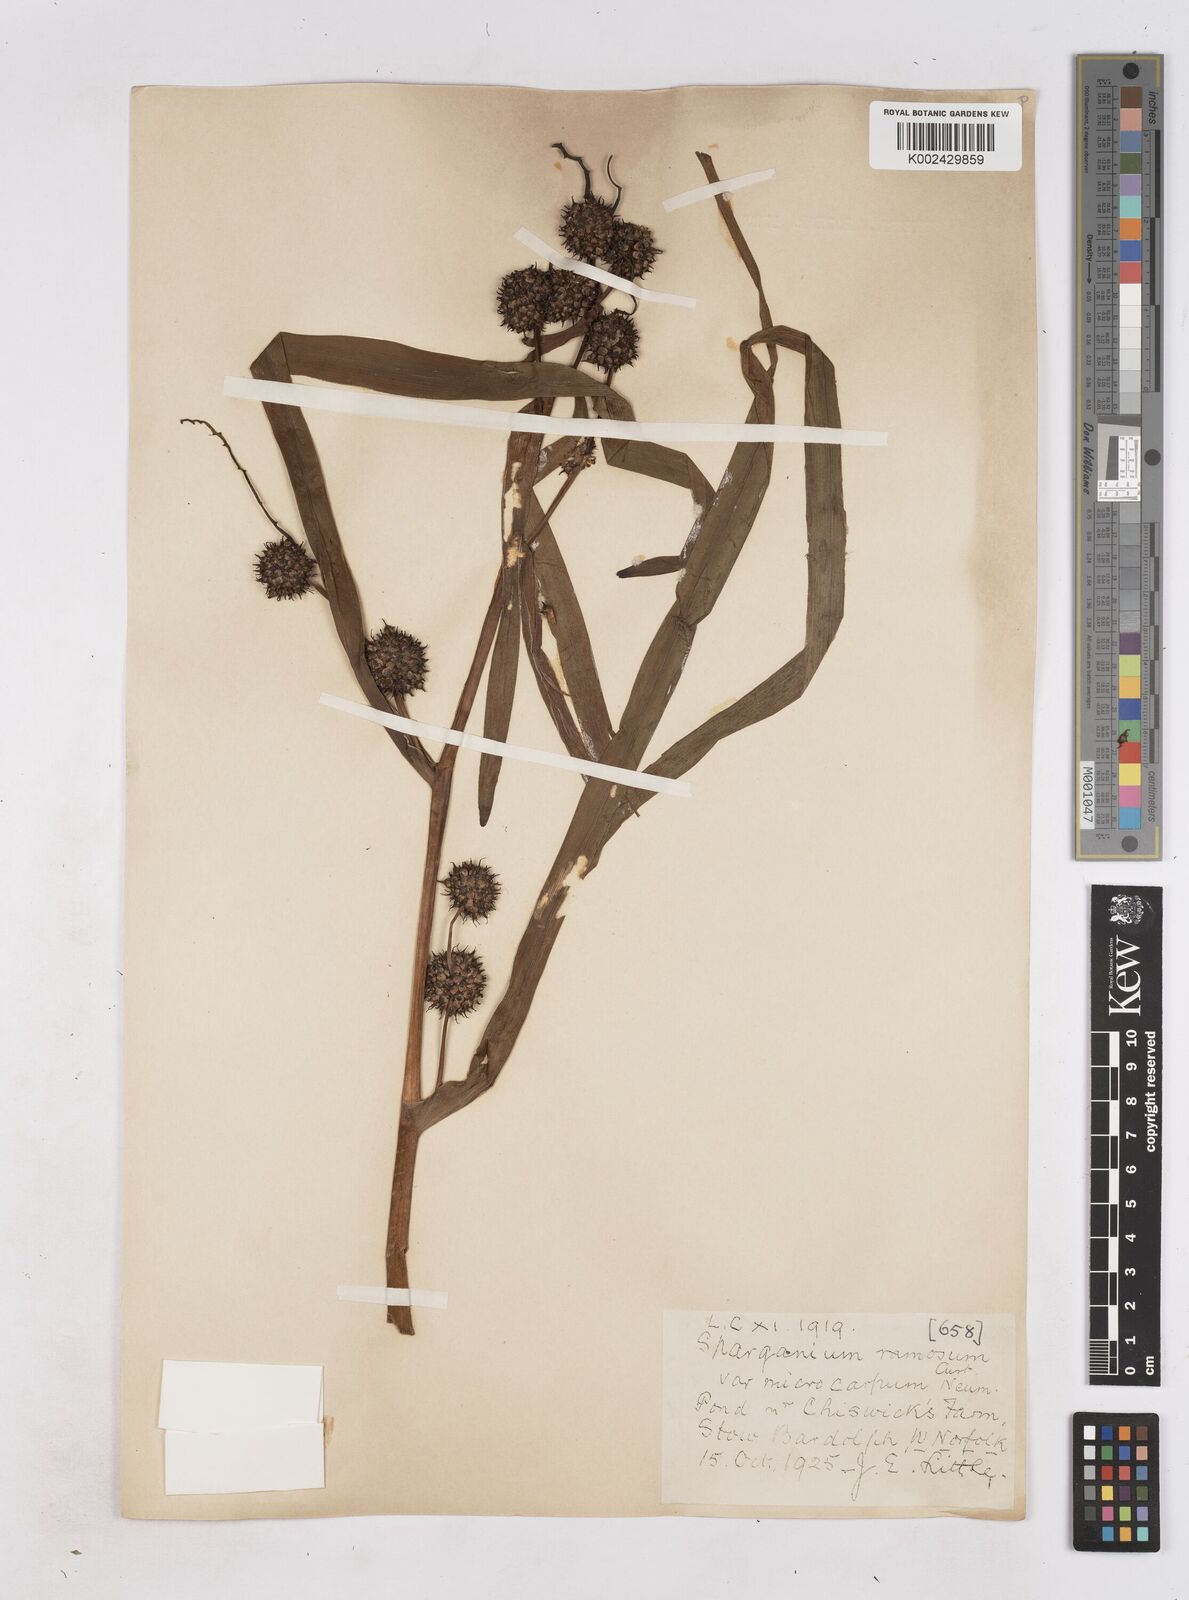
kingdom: Plantae
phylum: Tracheophyta
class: Liliopsida
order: Poales
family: Typhaceae
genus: Sparganium
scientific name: Sparganium erectum
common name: Branched bur-reed
